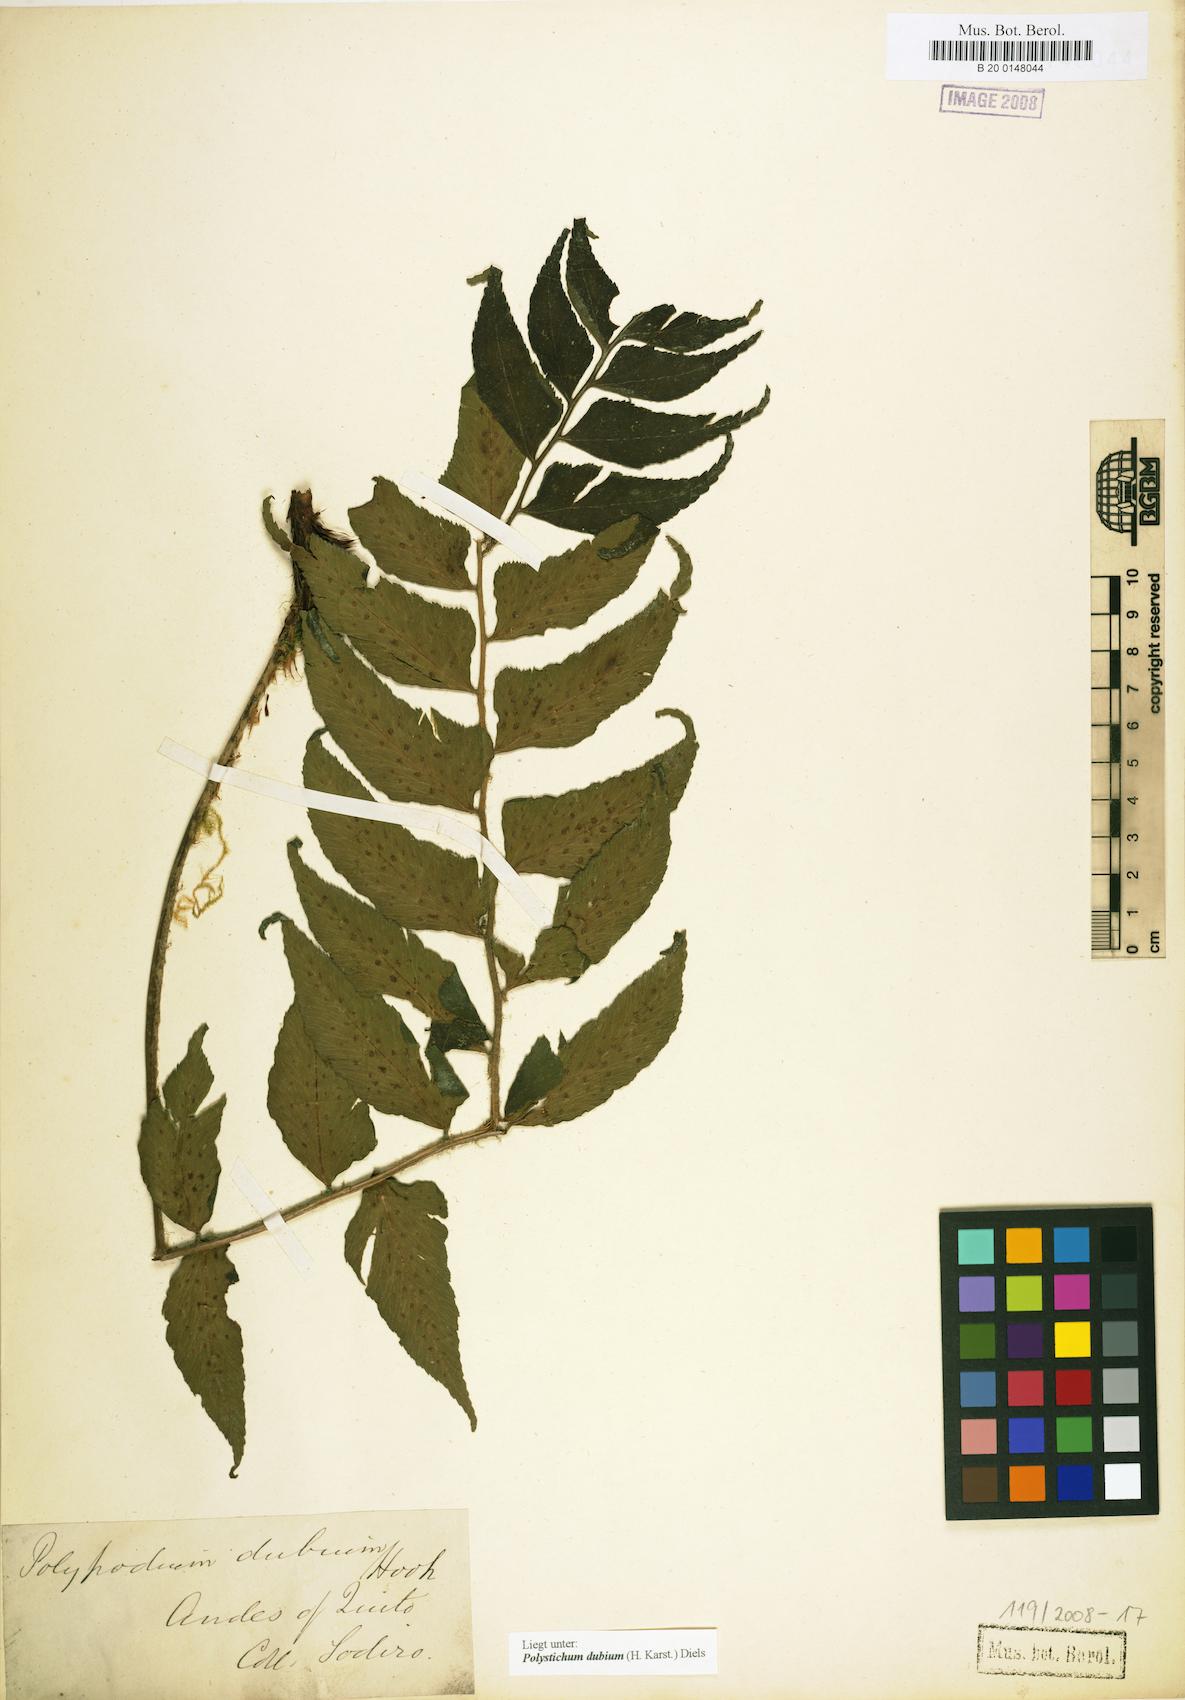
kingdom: Plantae
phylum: Tracheophyta
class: Polypodiopsida
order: Polypodiales
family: Dryopteridaceae
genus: Polystichum
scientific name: Polystichum dubium
